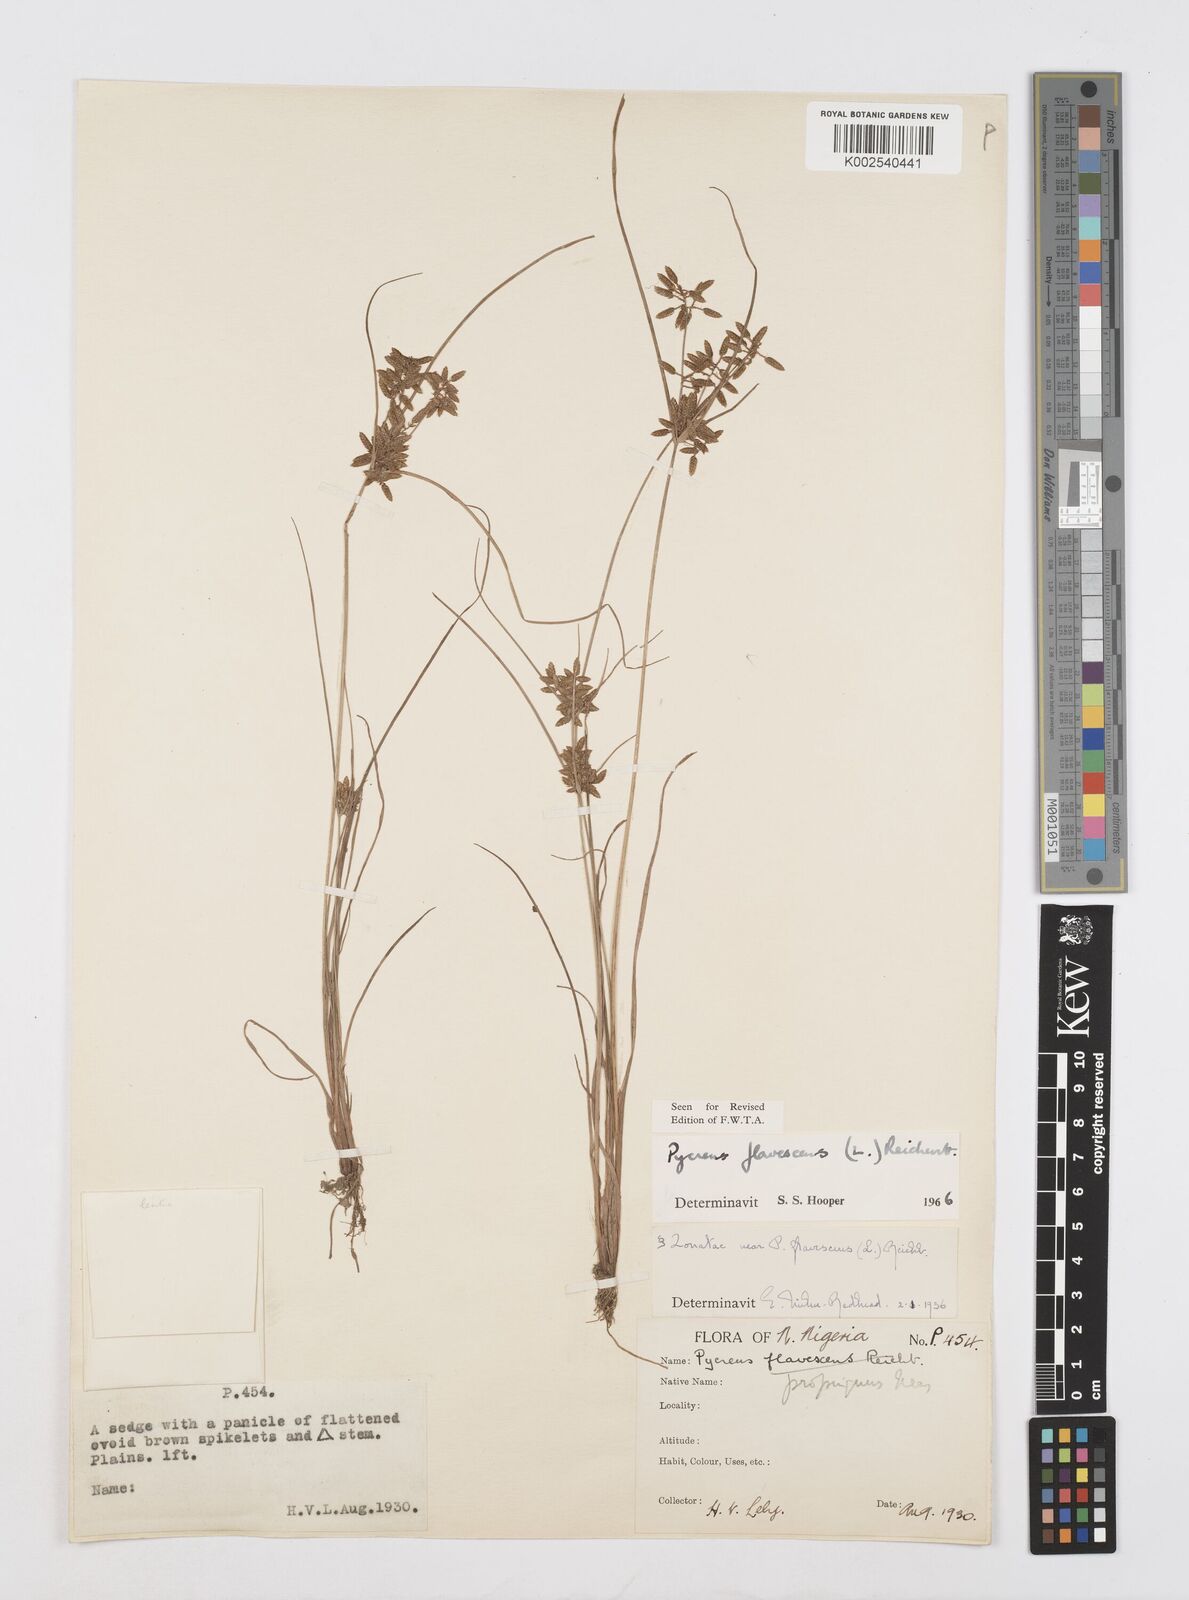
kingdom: Plantae
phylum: Tracheophyta
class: Liliopsida
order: Poales
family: Cyperaceae
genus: Cyperus
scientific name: Cyperus flavescens
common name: Yellow galingale
